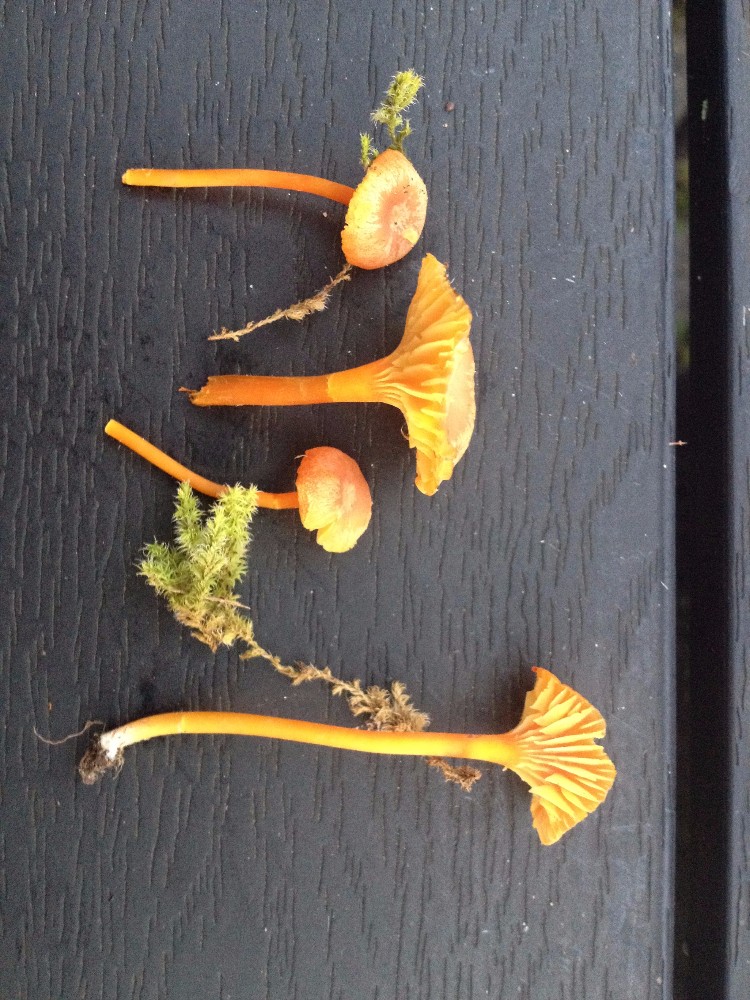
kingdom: Fungi
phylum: Basidiomycota
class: Agaricomycetes
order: Agaricales
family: Hygrophoraceae
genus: Hygrocybe
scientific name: Hygrocybe cantharellus
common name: kantarel-vokshat
